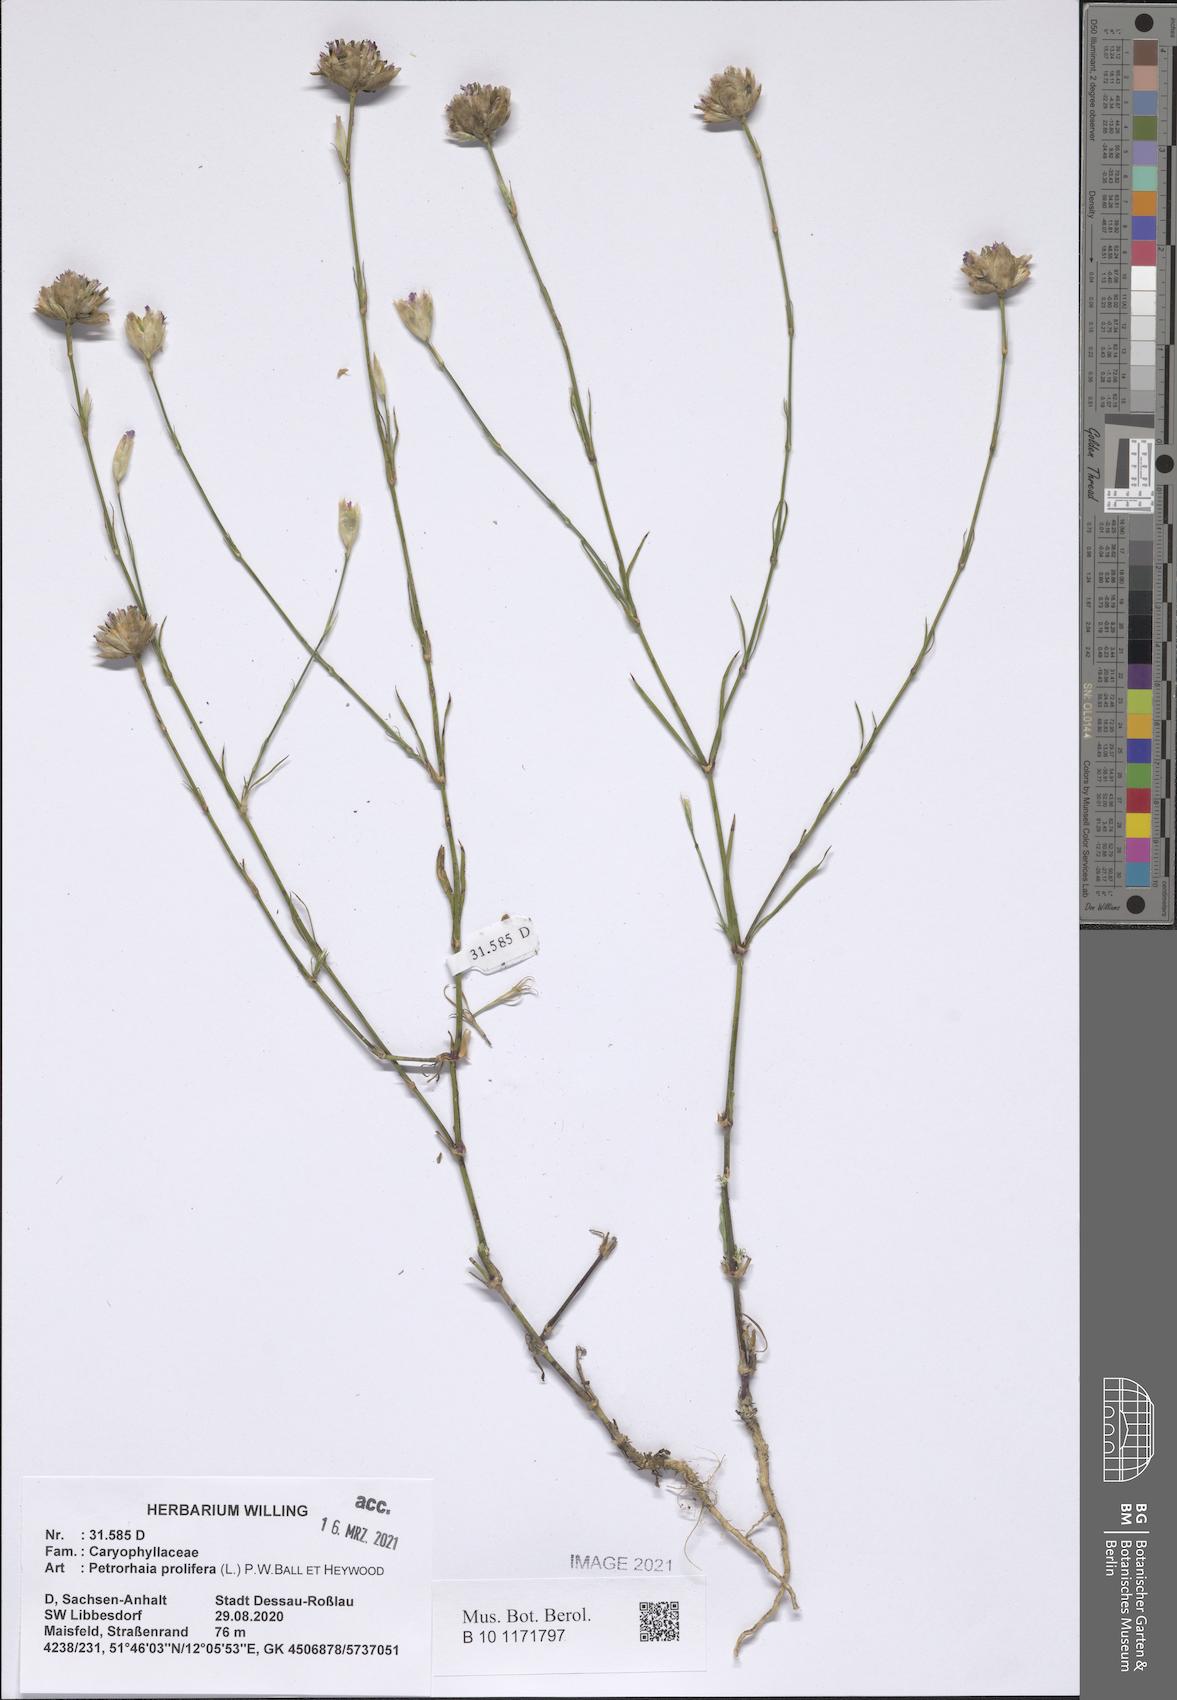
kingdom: Plantae
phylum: Tracheophyta
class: Magnoliopsida
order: Caryophyllales
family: Caryophyllaceae
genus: Petrorhagia
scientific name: Petrorhagia prolifera
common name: Proliferous pink
